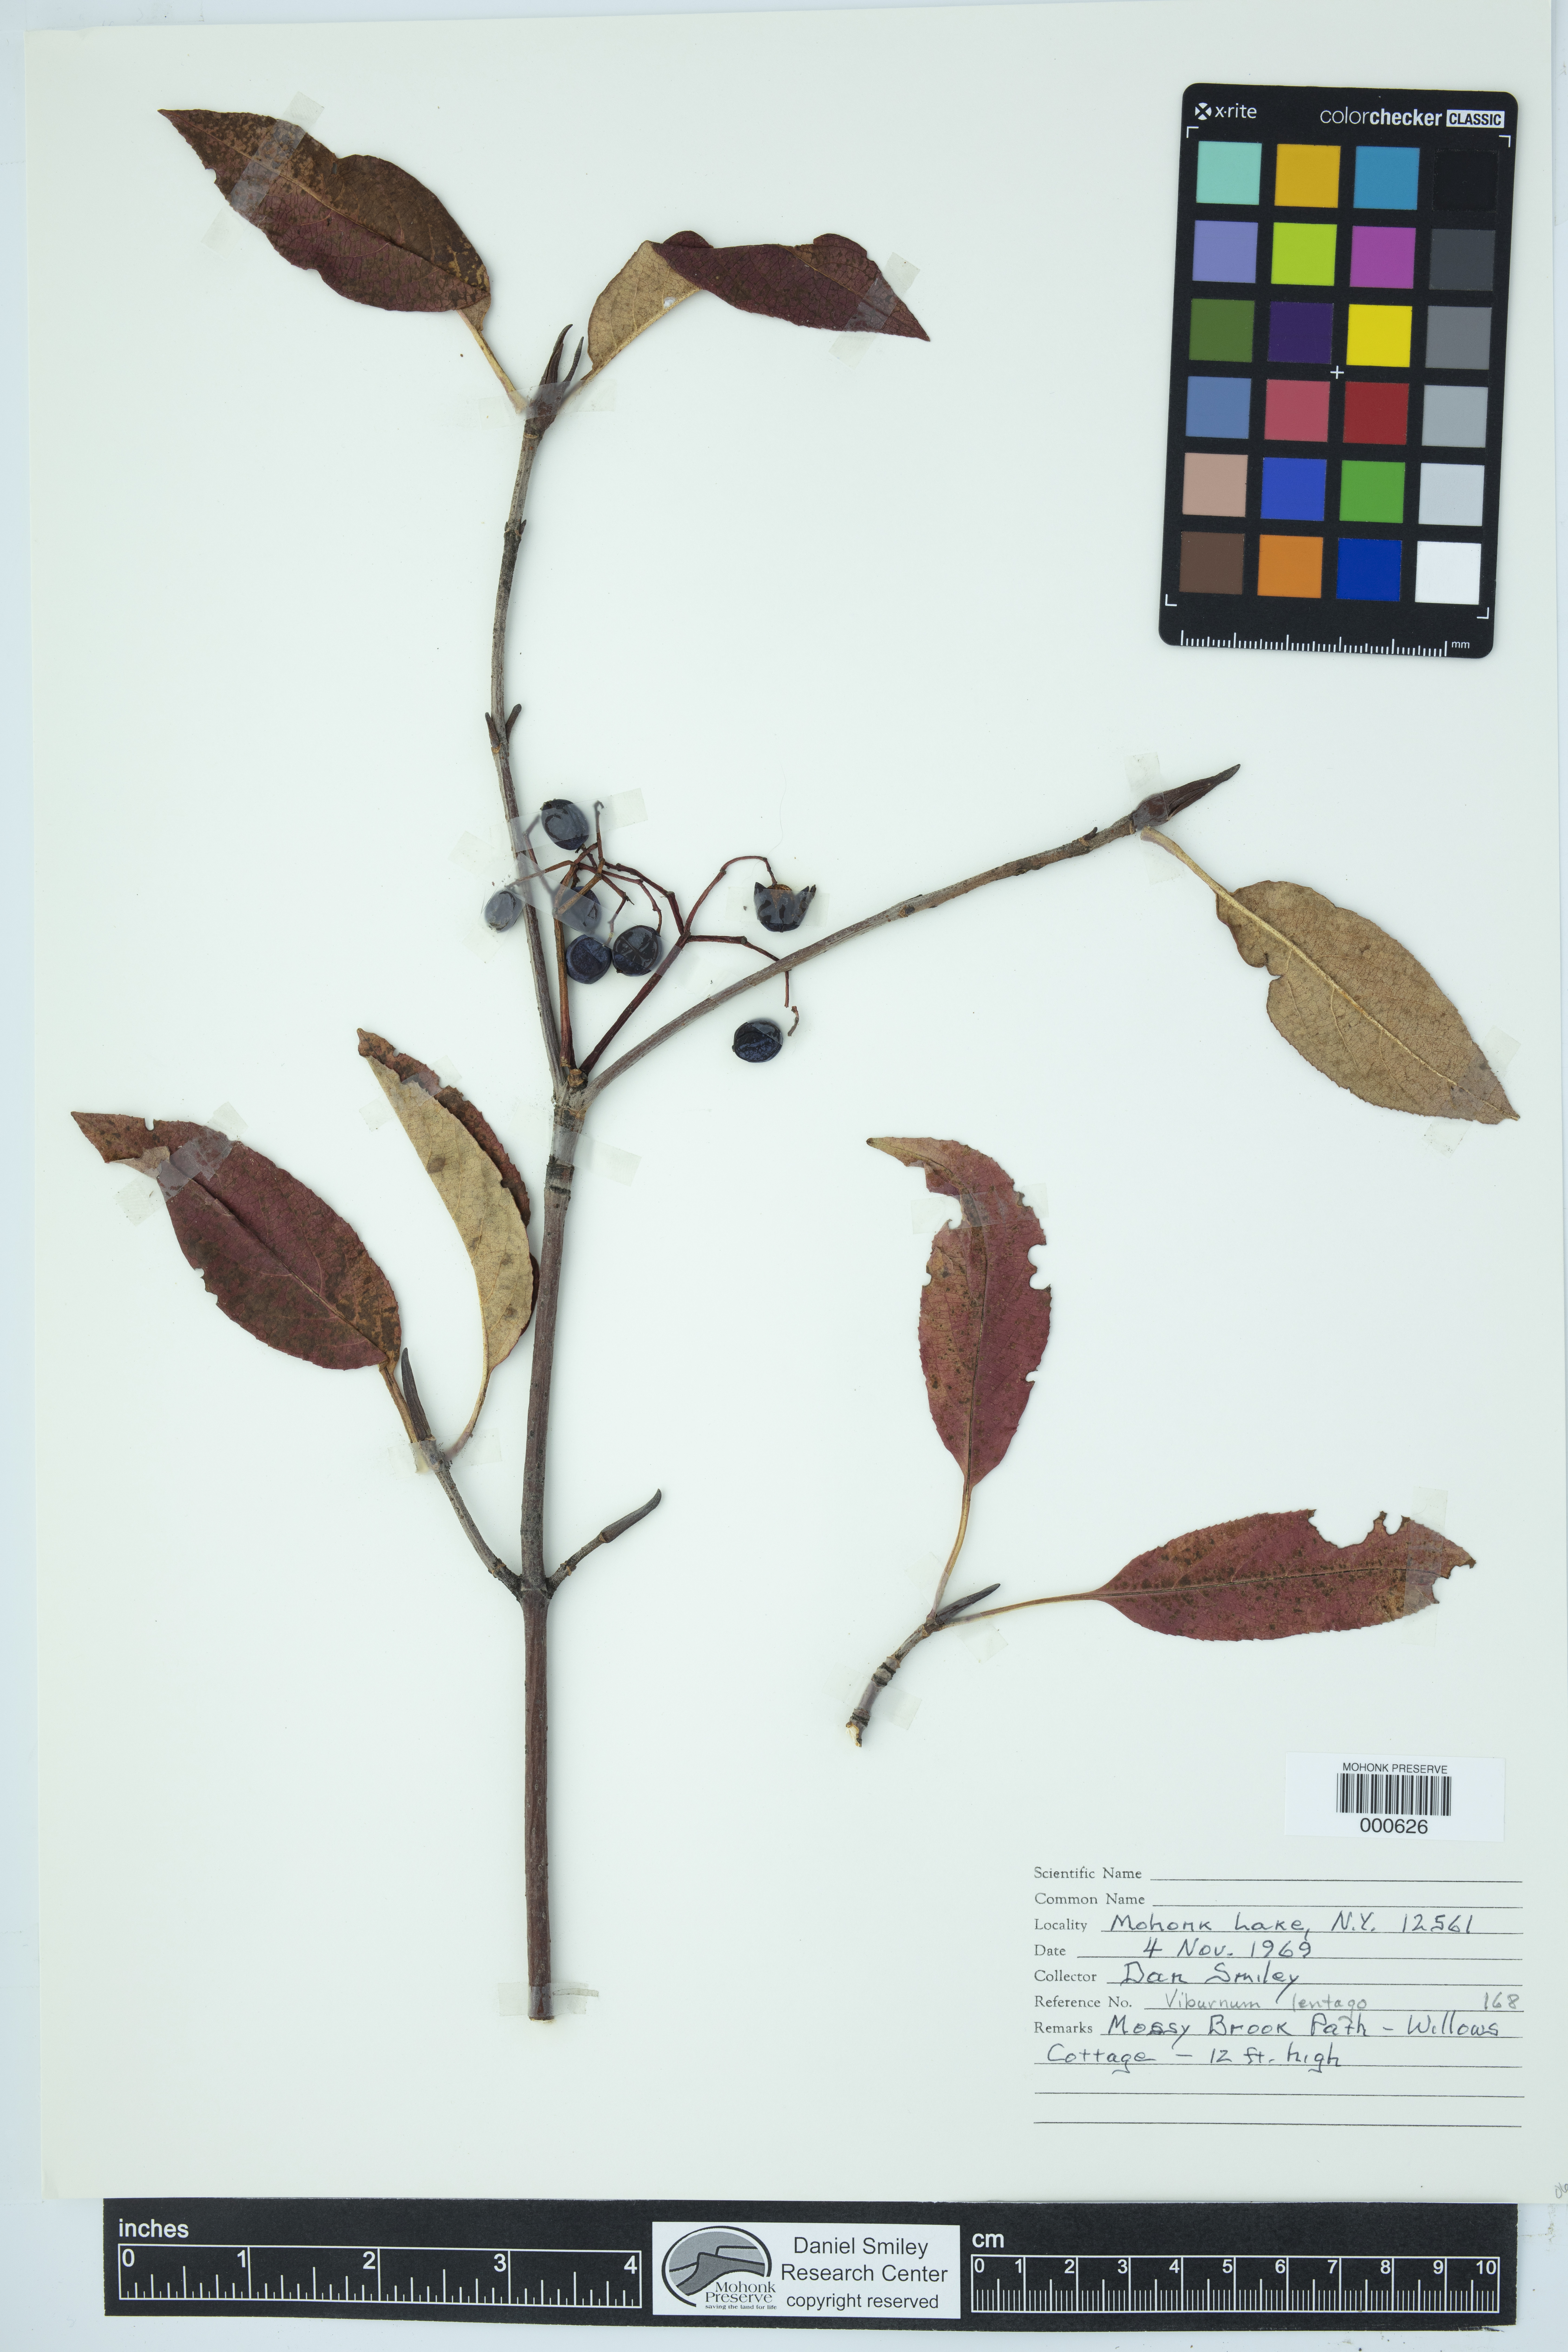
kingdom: Plantae
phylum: Tracheophyta
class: Magnoliopsida
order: Dipsacales
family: Viburnaceae
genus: Viburnum
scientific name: Viburnum lentago
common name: Black haw
